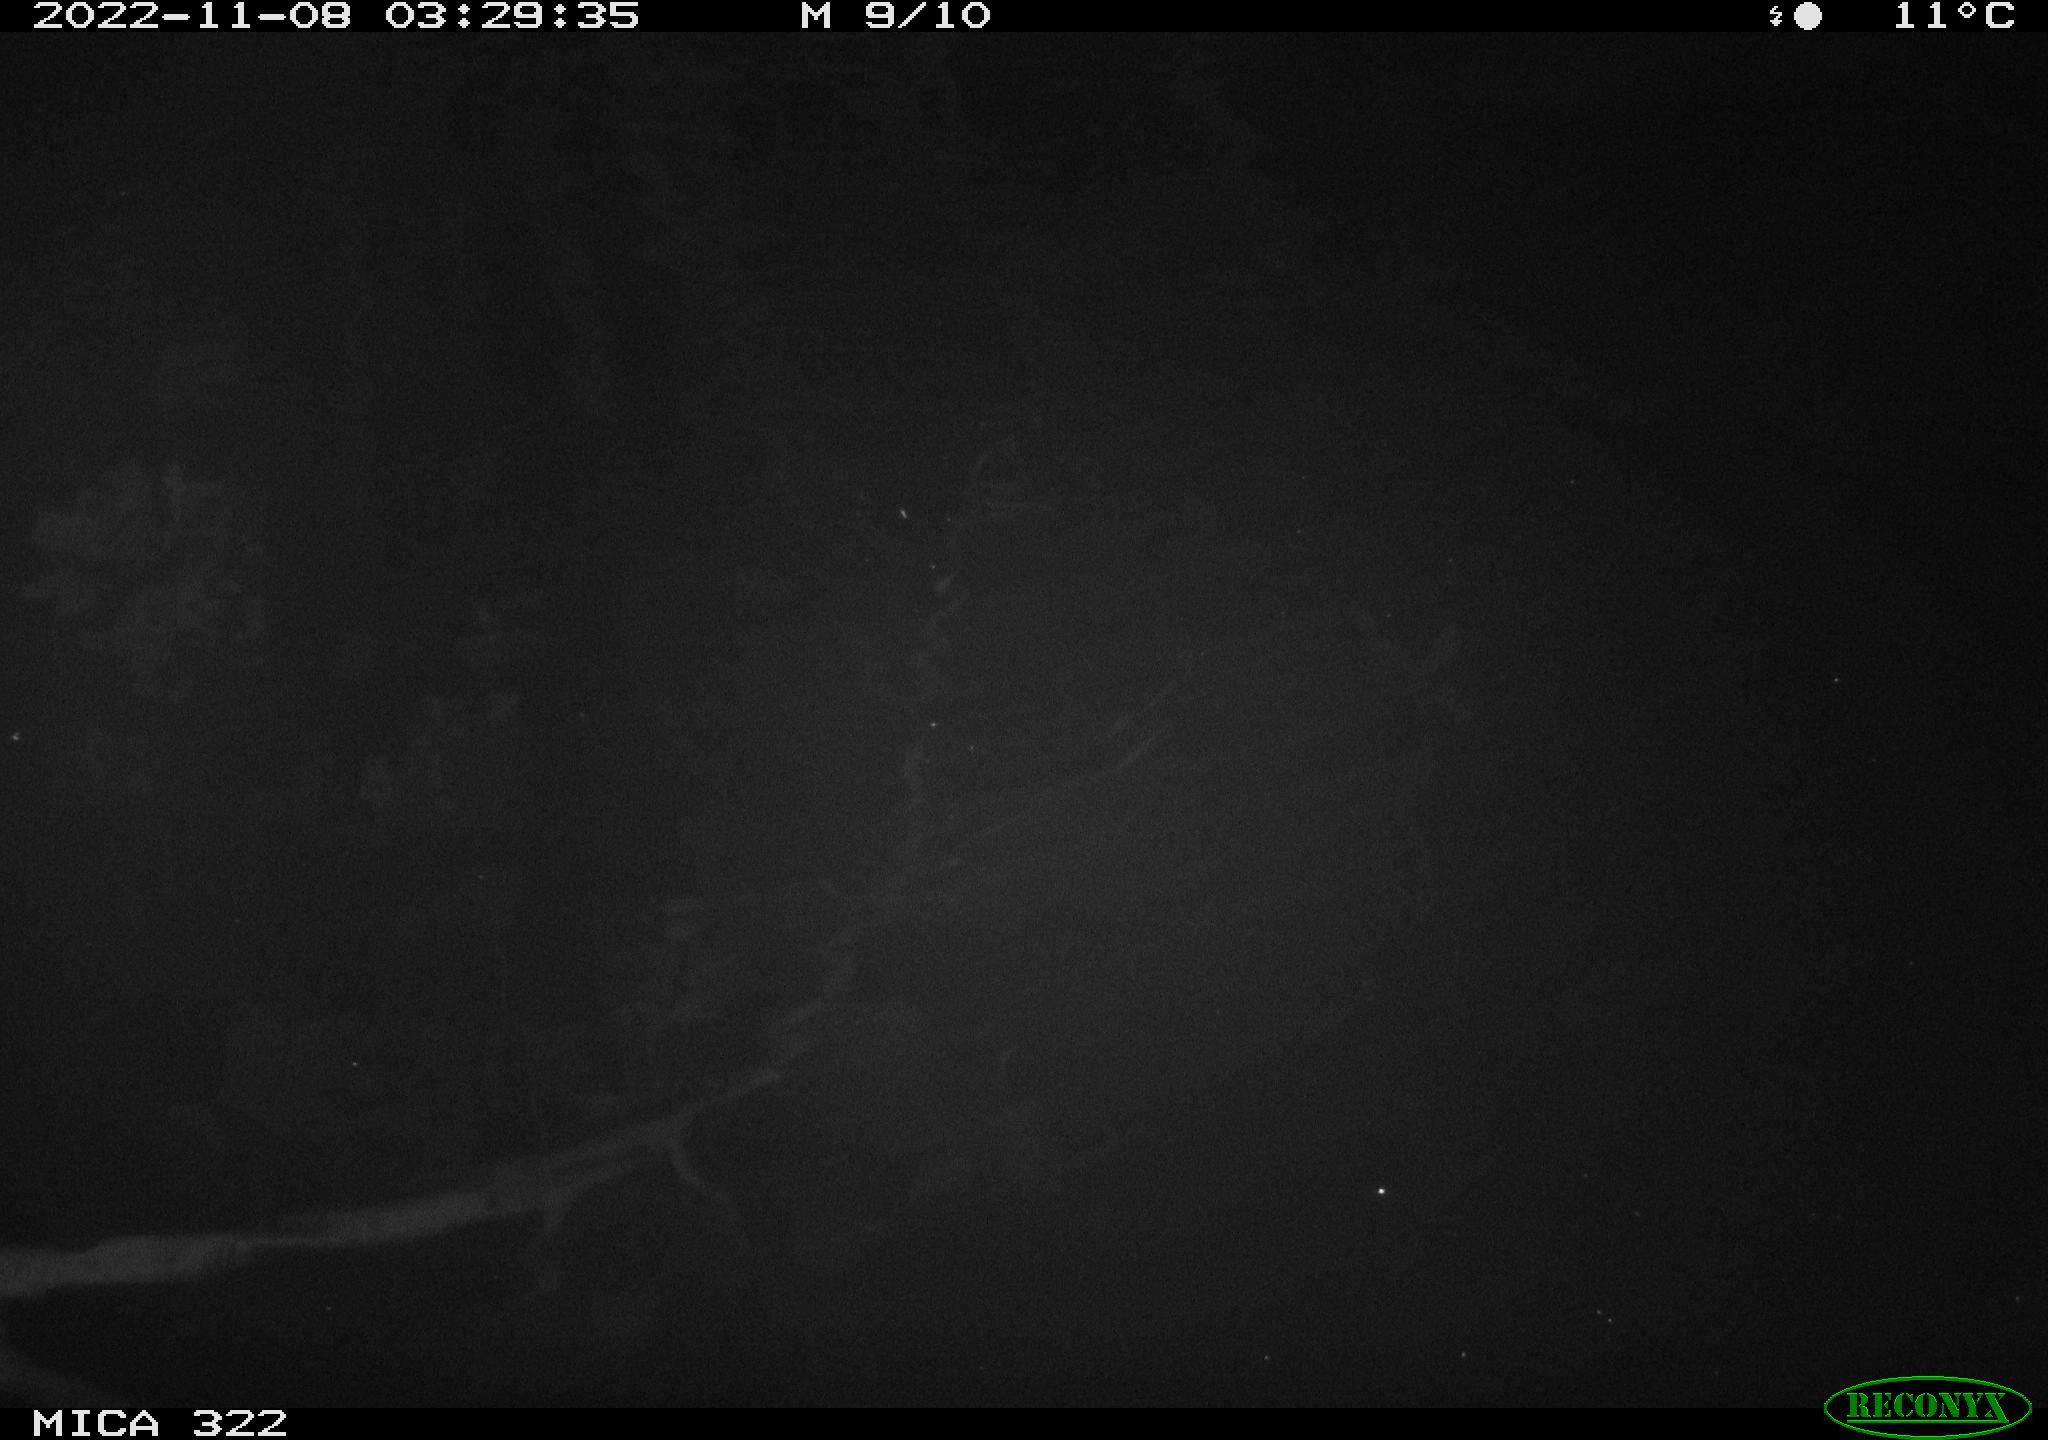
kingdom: Animalia
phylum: Chordata
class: Mammalia
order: Rodentia
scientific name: Rodentia
